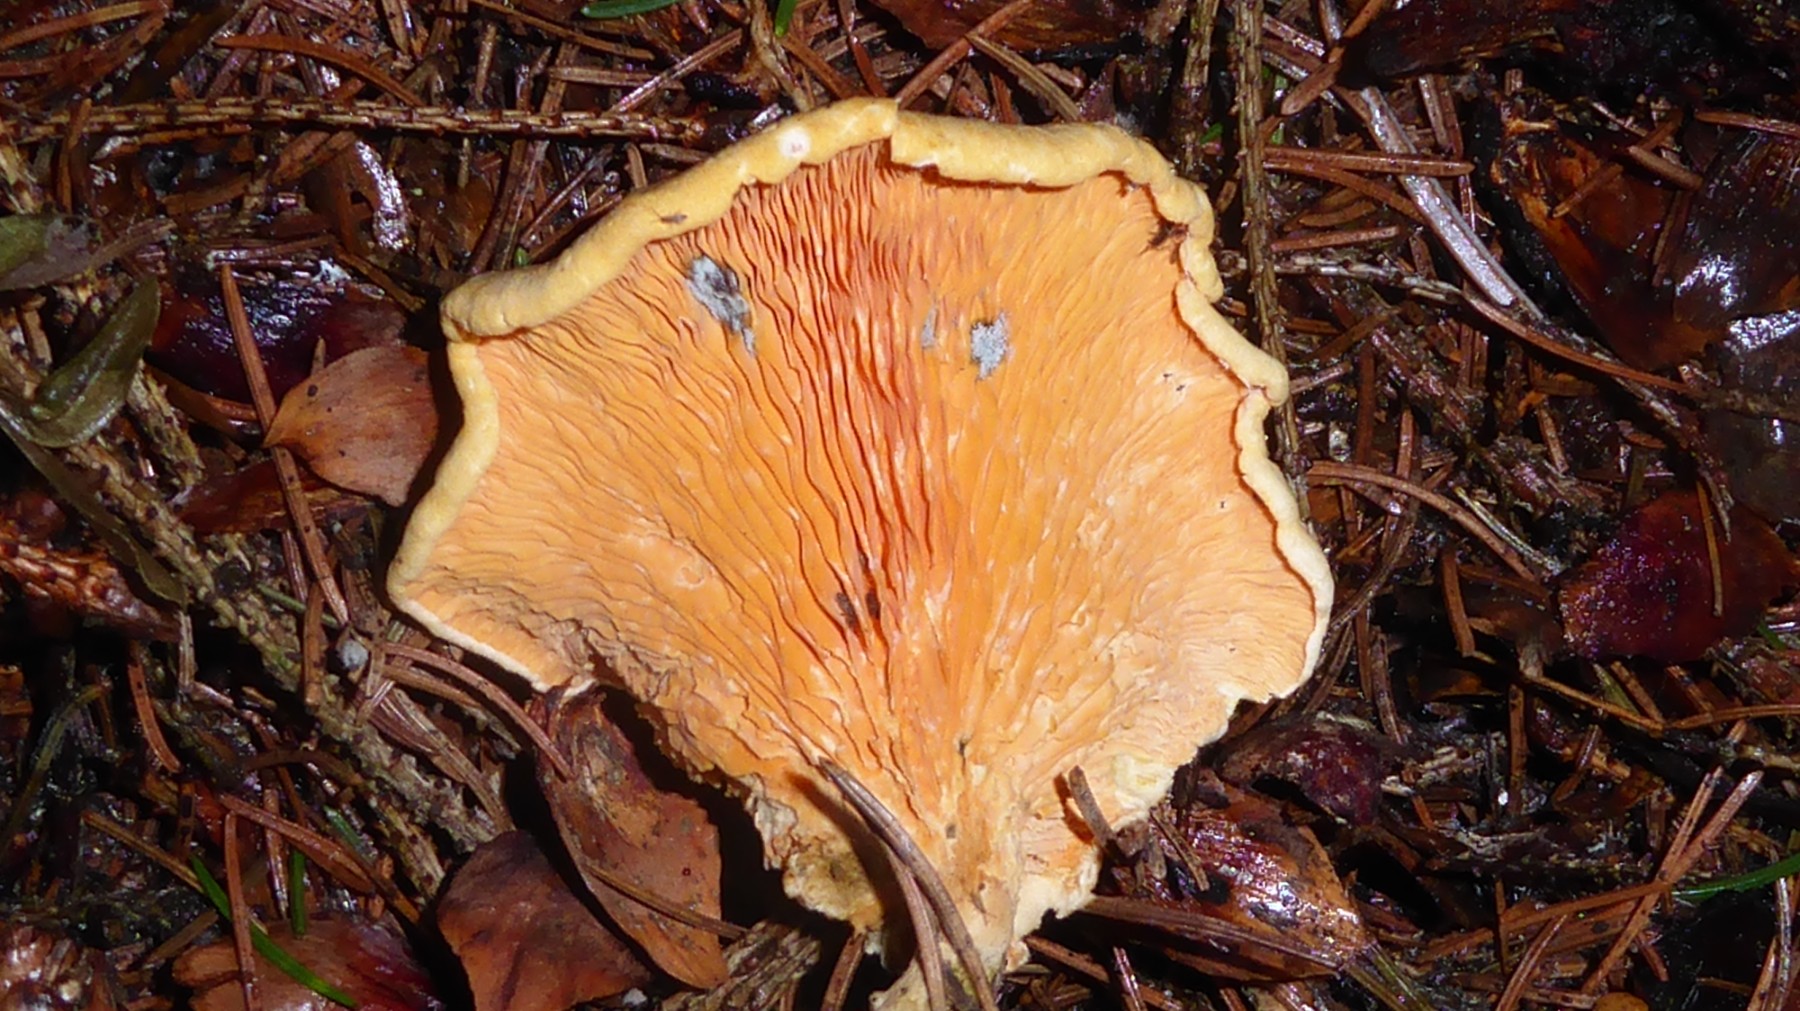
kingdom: Fungi
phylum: Basidiomycota
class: Agaricomycetes
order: Boletales
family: Tapinellaceae
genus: Tapinella
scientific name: Tapinella panuoides
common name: tømmer-viftesvamp
